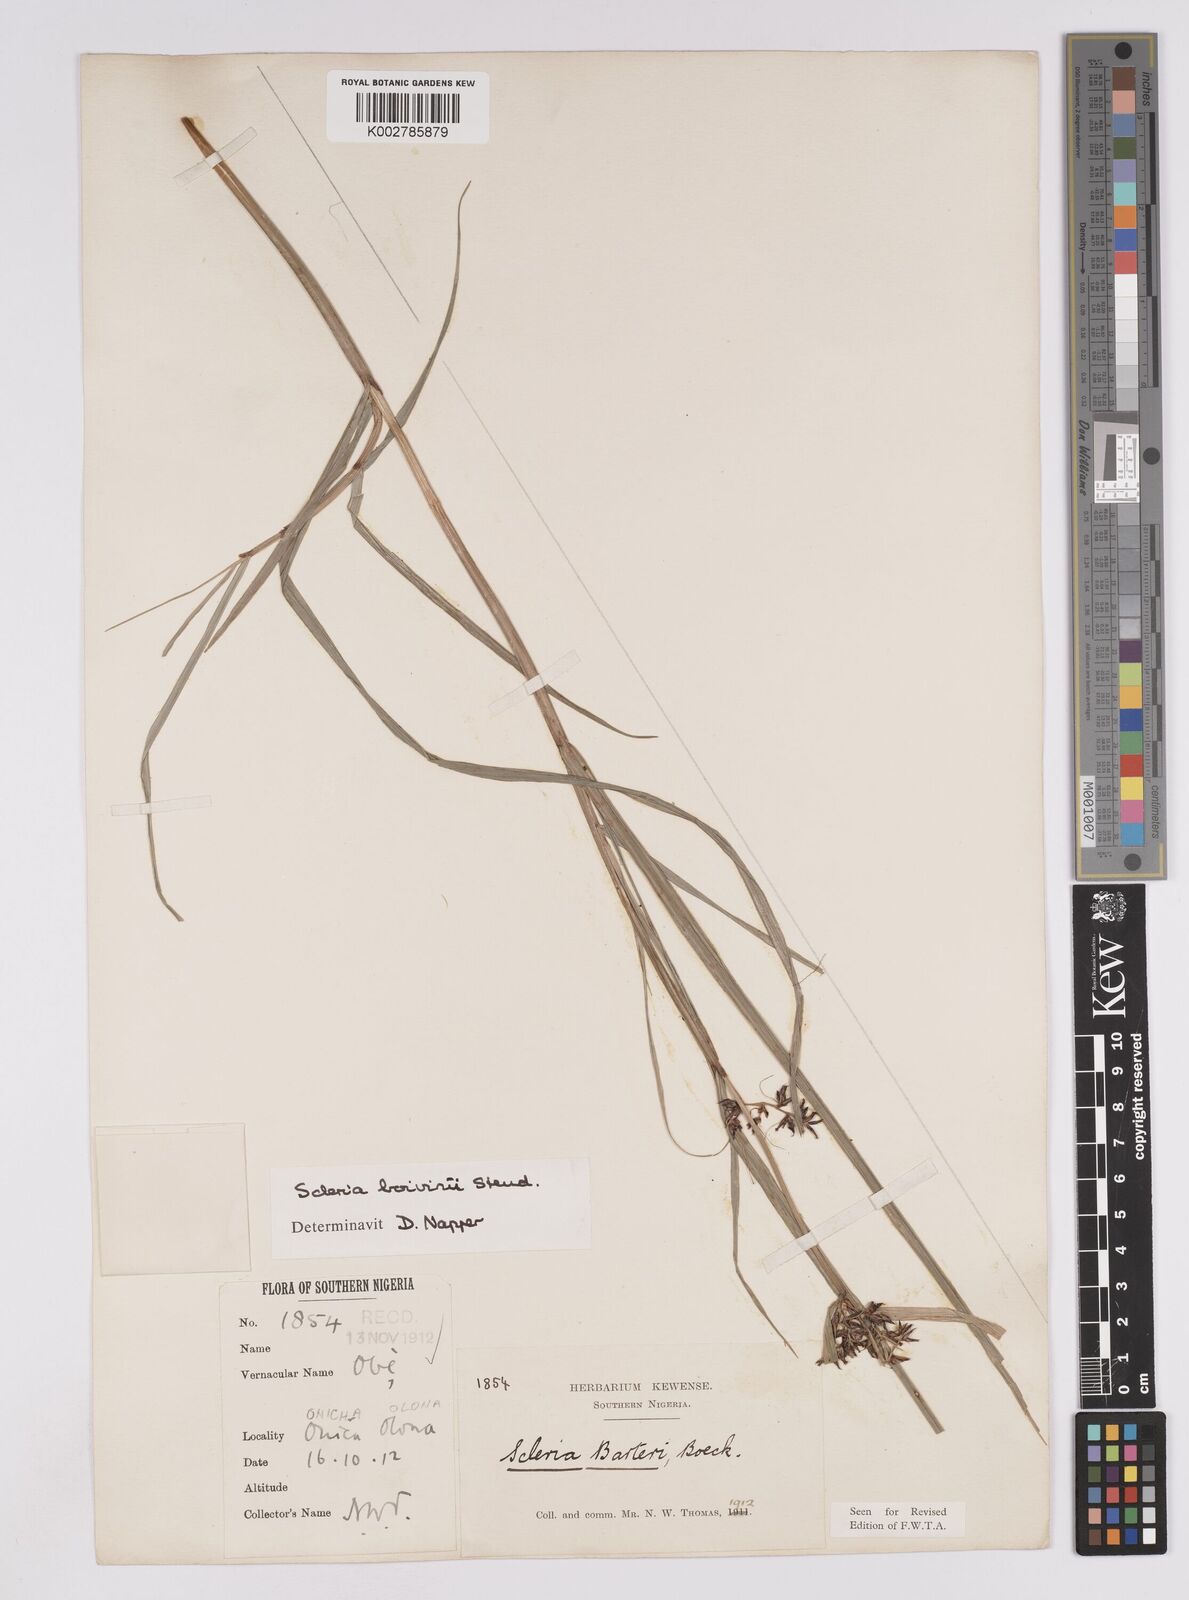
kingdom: Plantae
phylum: Tracheophyta
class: Liliopsida
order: Poales
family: Cyperaceae
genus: Scleria
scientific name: Scleria boivinii
